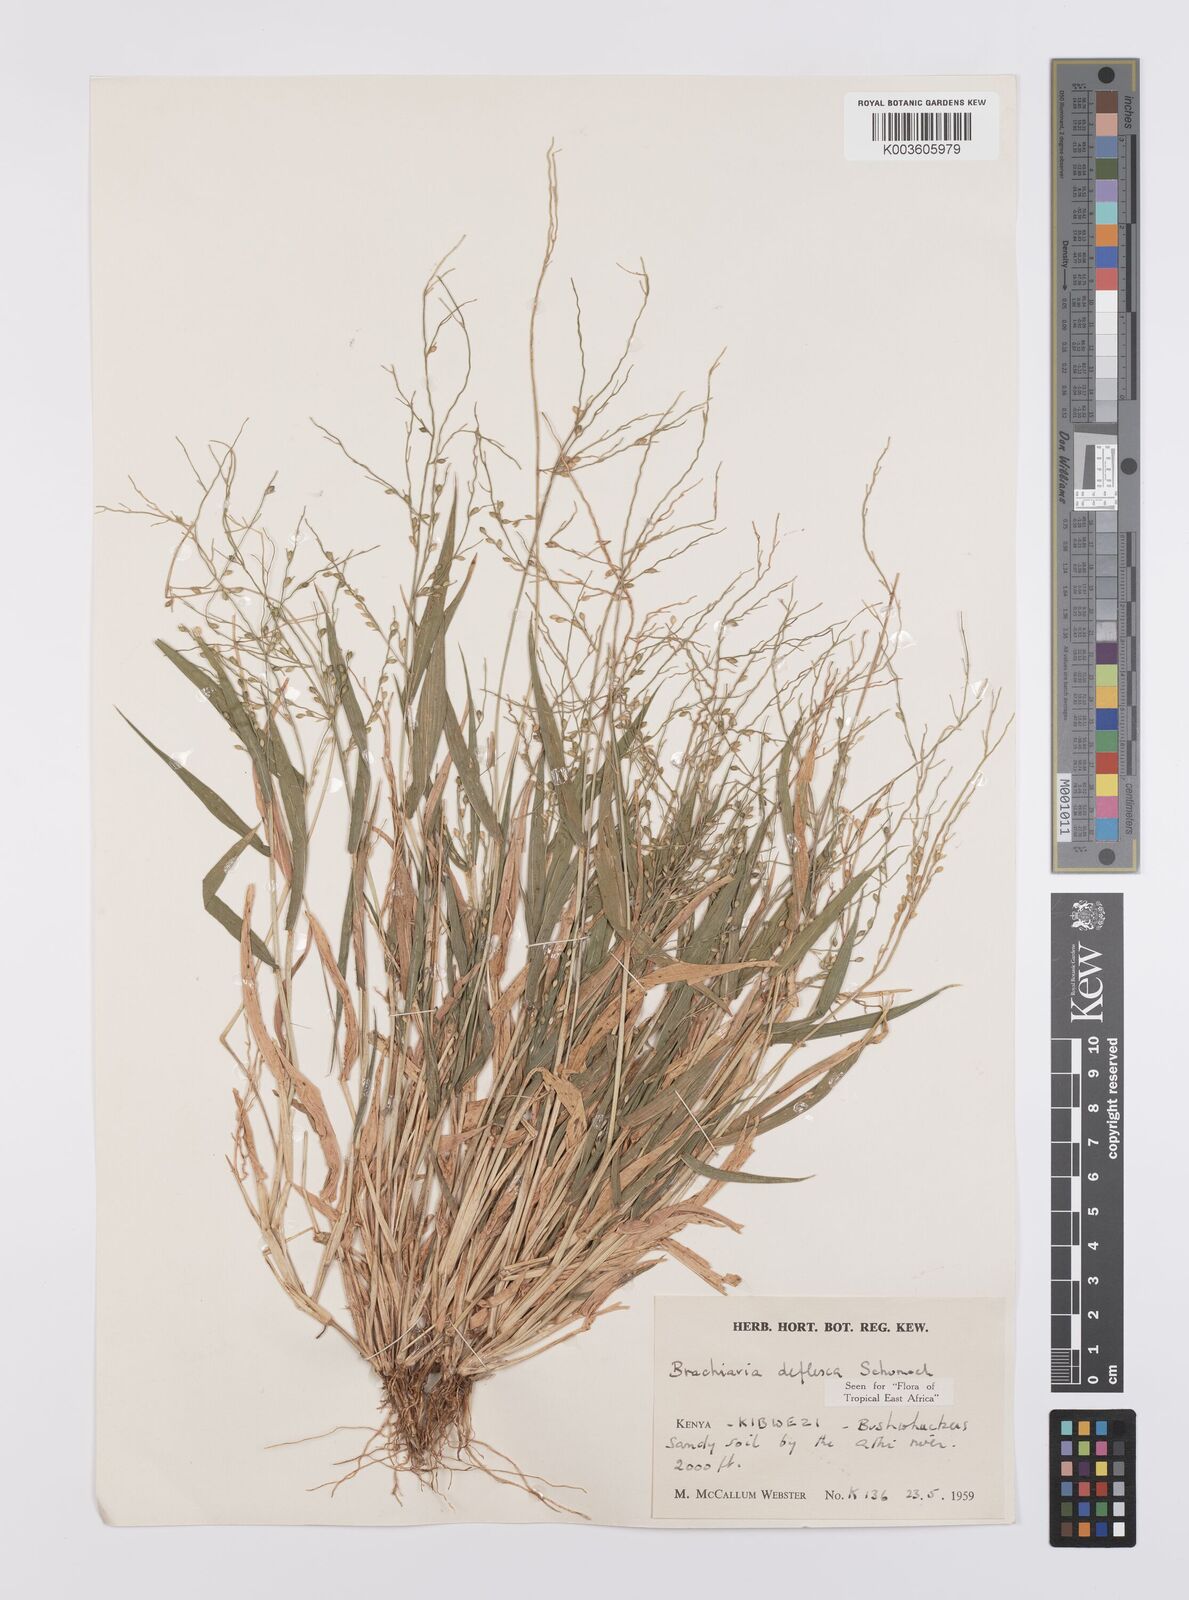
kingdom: Plantae
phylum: Tracheophyta
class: Liliopsida
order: Poales
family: Poaceae
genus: Urochloa
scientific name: Urochloa deflexa
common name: Guinea millet
